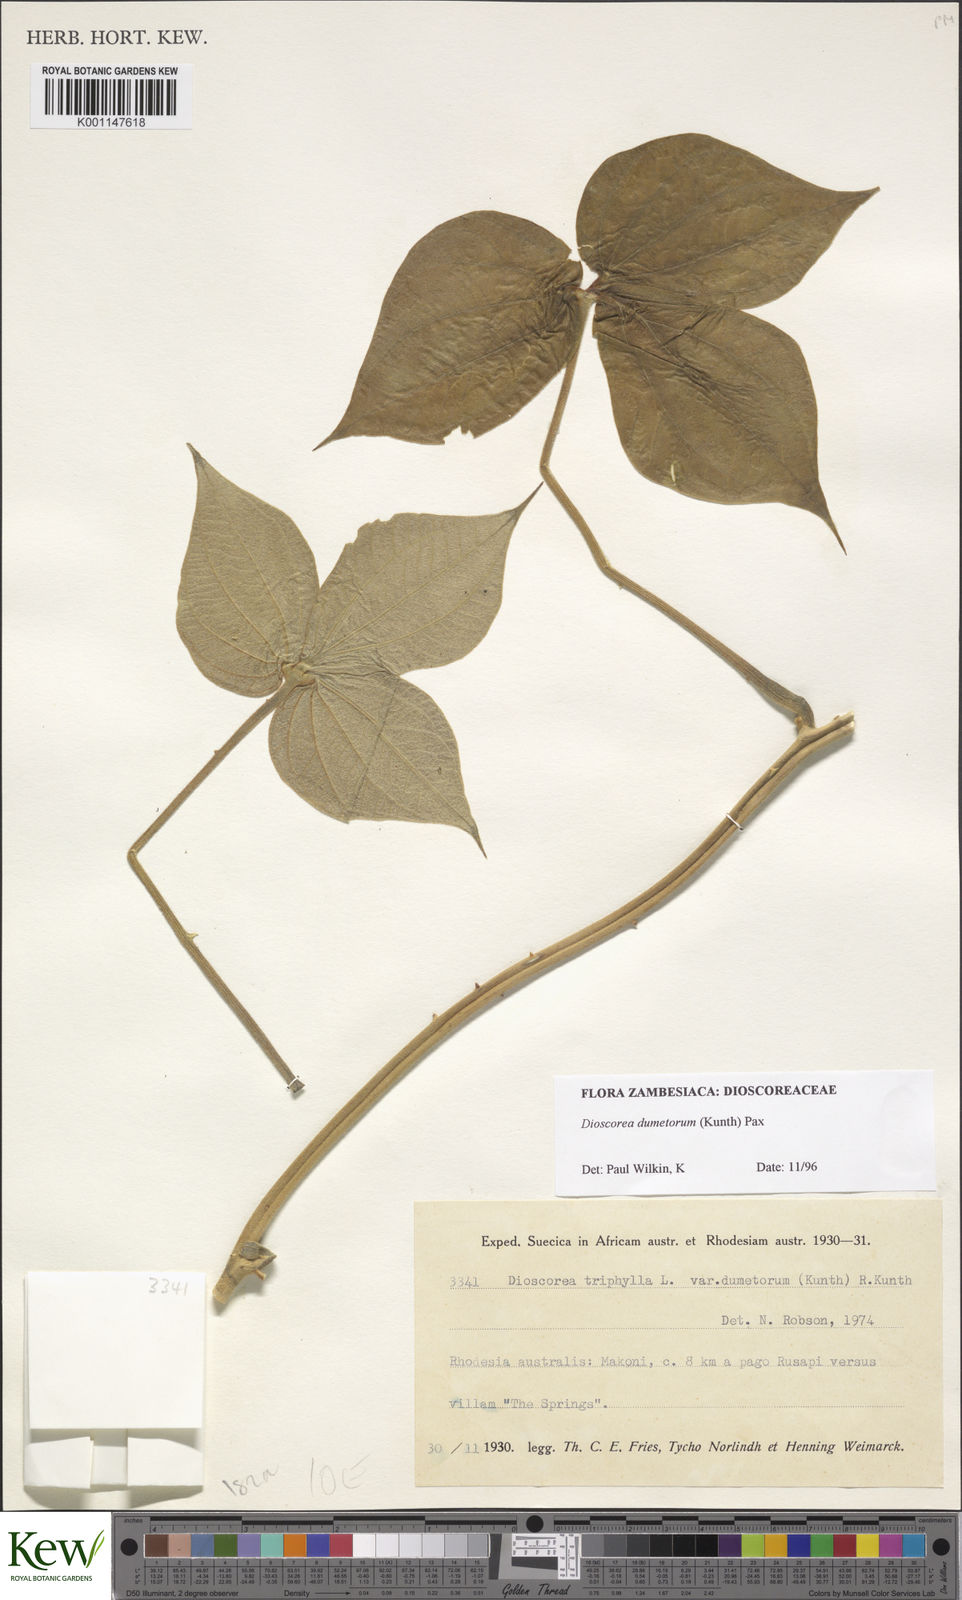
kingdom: Plantae
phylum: Tracheophyta
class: Liliopsida
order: Dioscoreales
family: Dioscoreaceae
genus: Dioscorea
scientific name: Dioscorea dumetorum
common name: African bitter yam
